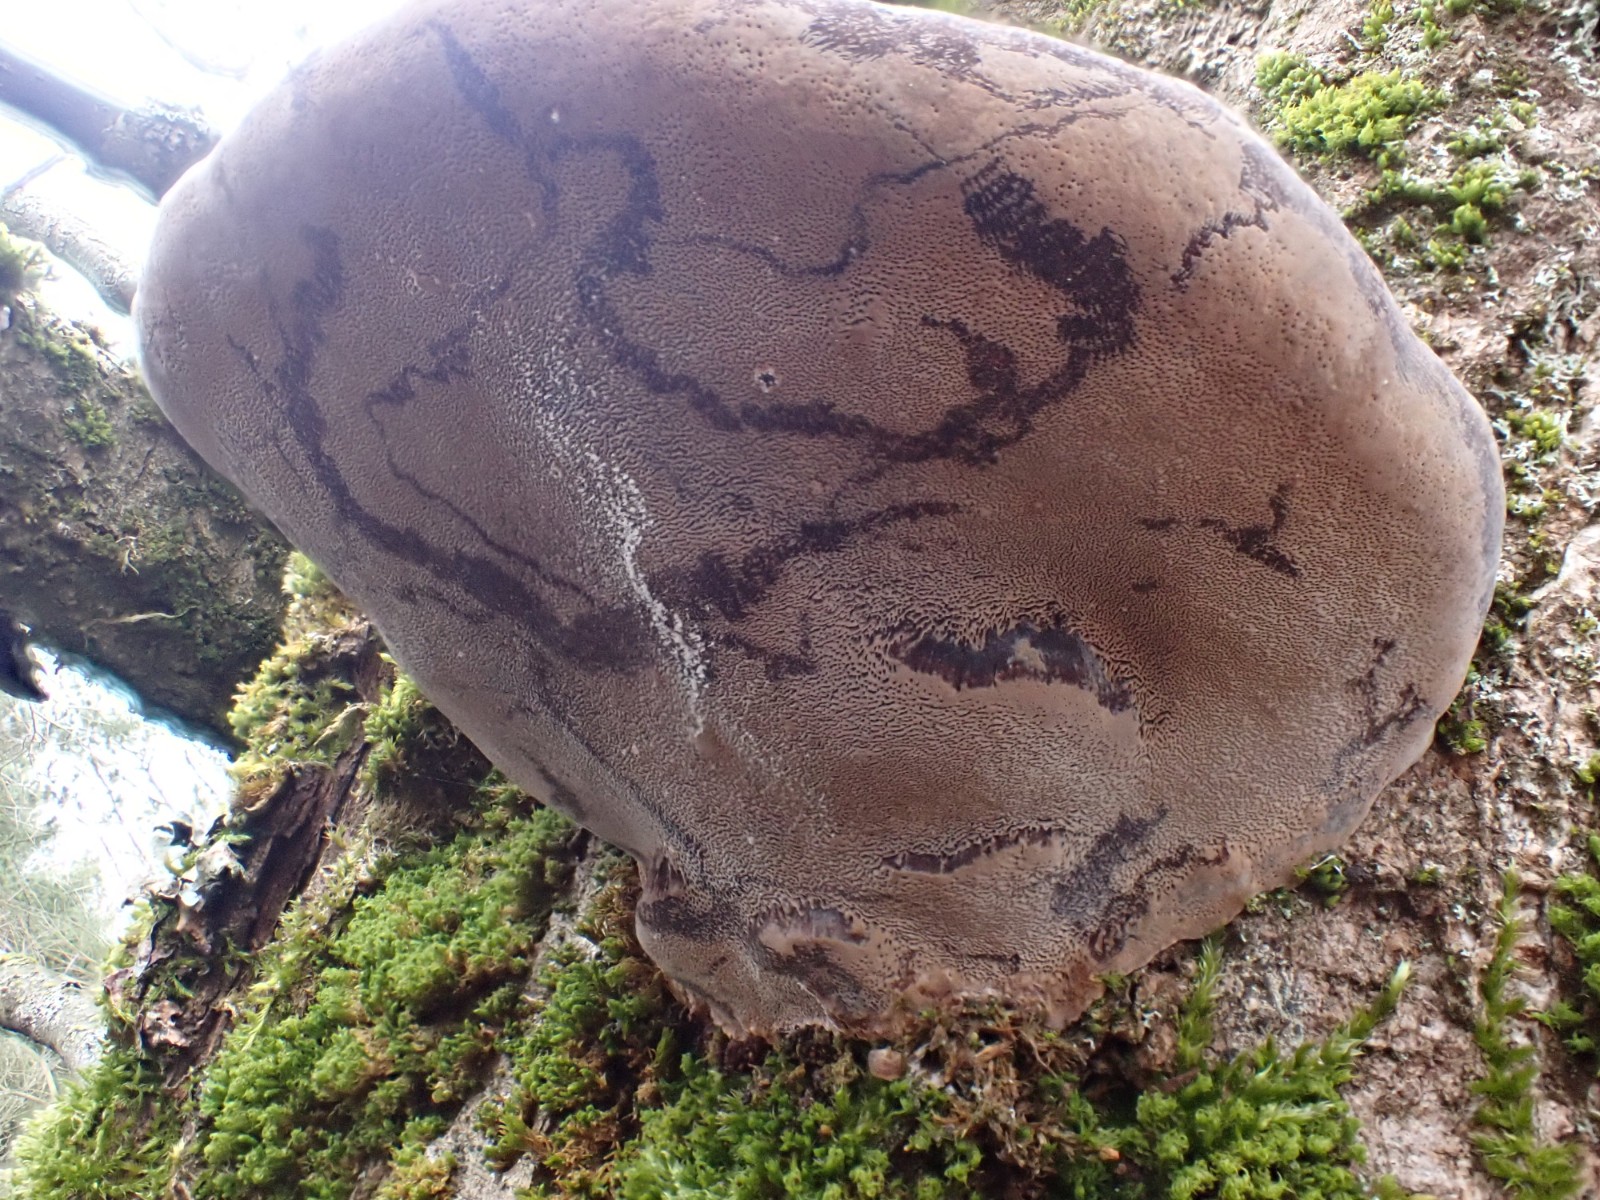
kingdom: Fungi
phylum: Basidiomycota
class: Agaricomycetes
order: Hymenochaetales
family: Hymenochaetaceae
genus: Phellinus
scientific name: Phellinus igniarius
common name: almindelig ildporesvamp
